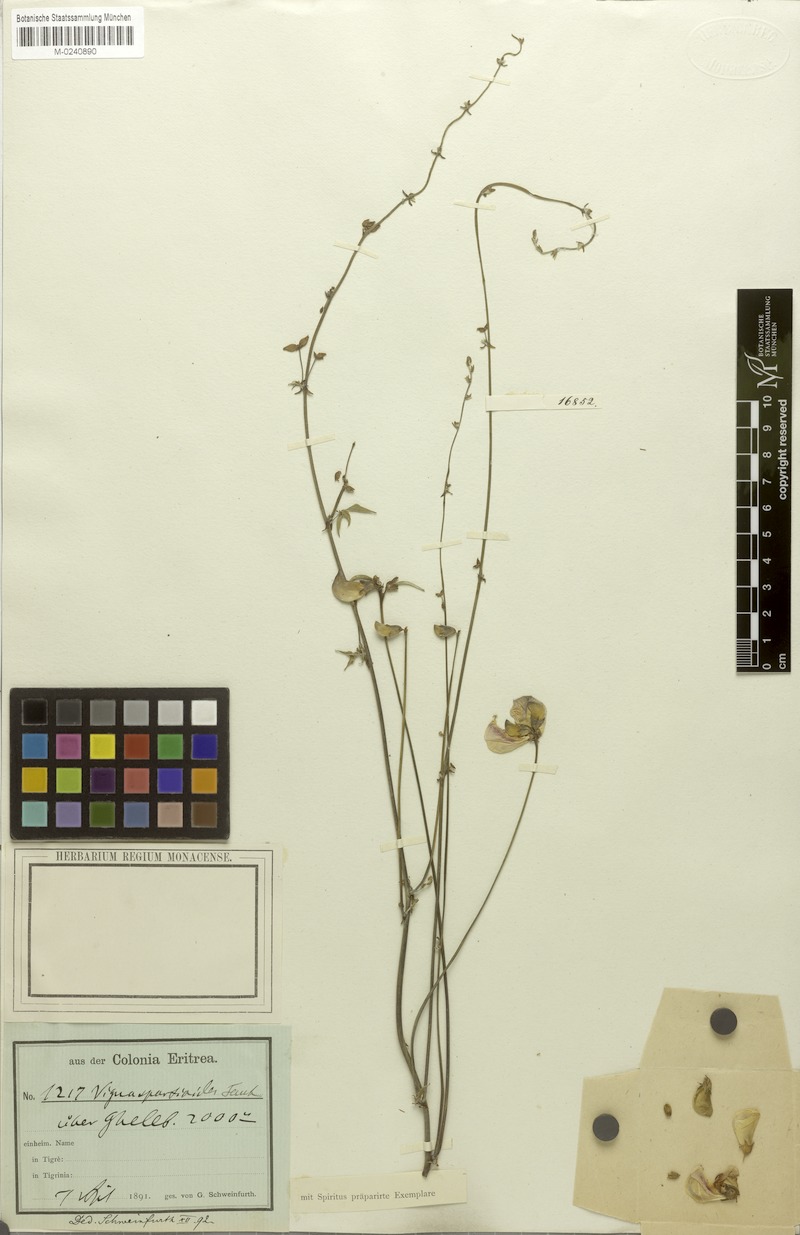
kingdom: Plantae
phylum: Tracheophyta
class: Magnoliopsida
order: Fabales
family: Fabaceae
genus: Vigna
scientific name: Vigna frutescens
